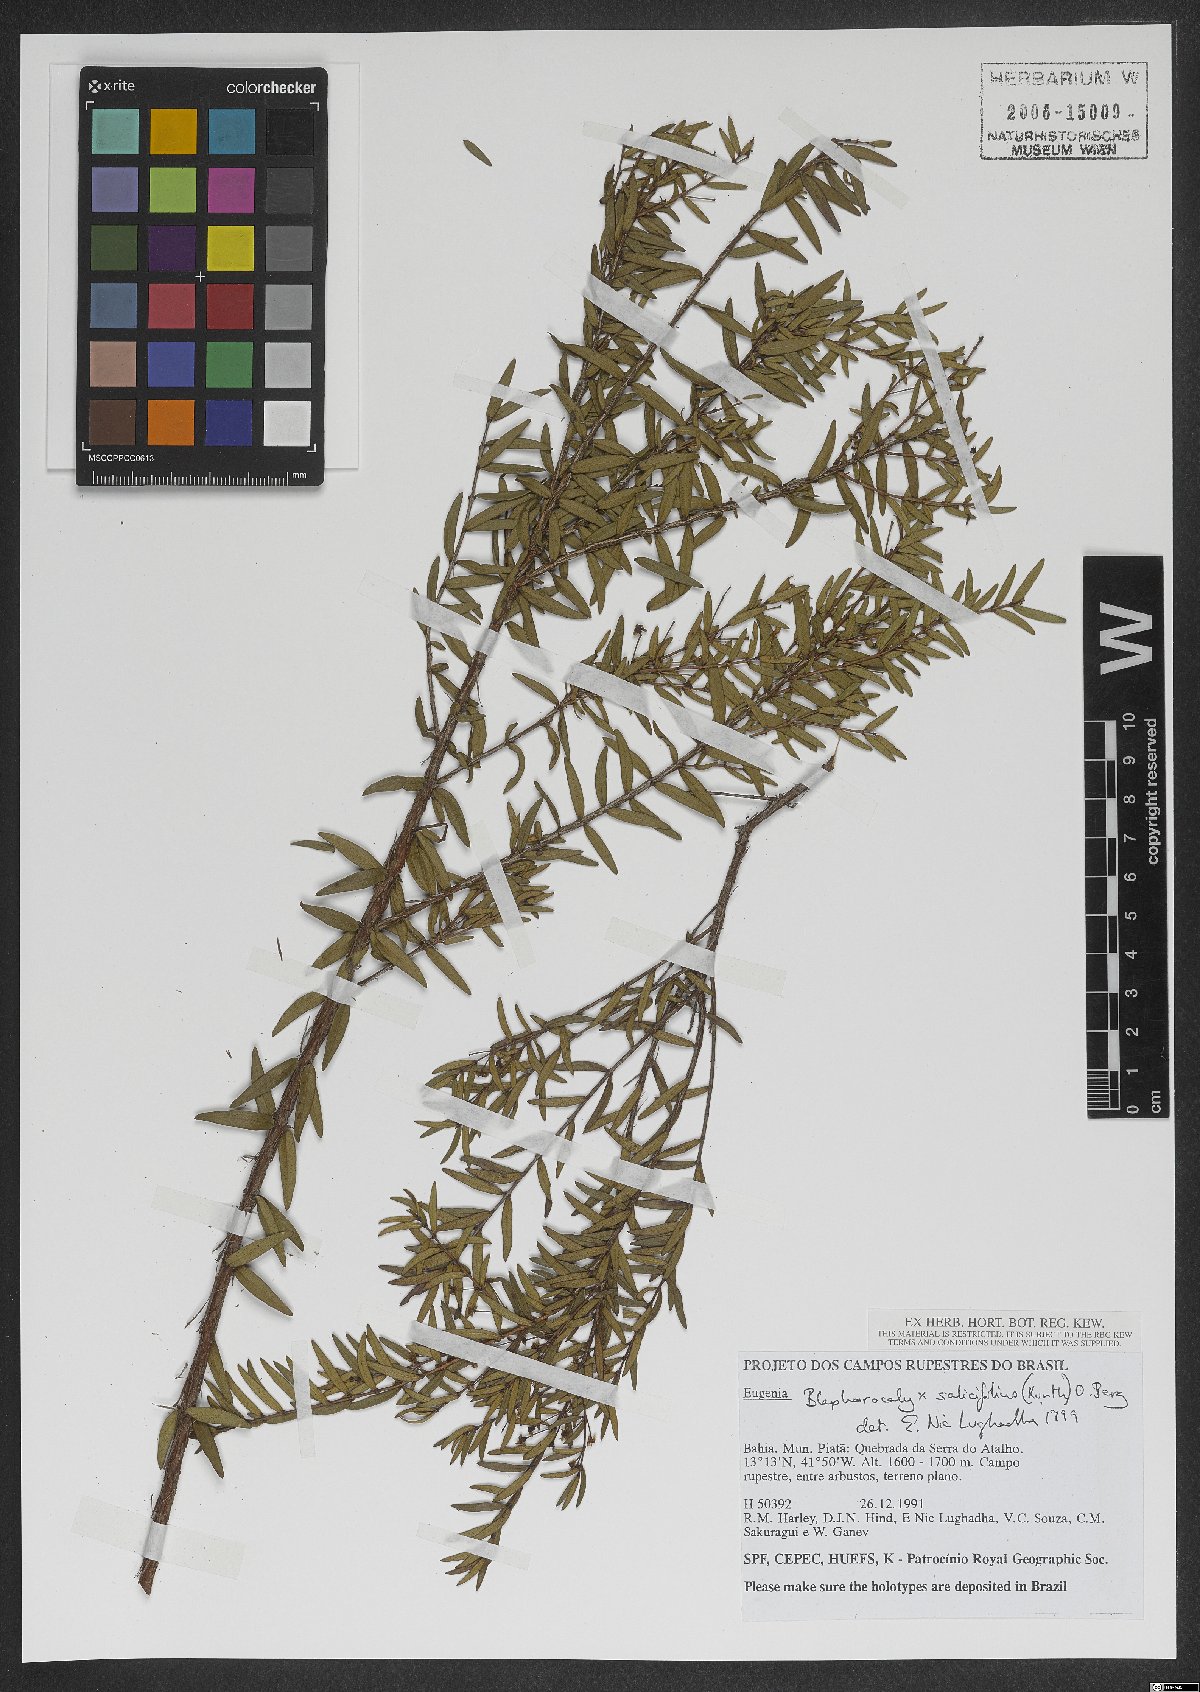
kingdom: Plantae
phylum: Tracheophyta
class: Magnoliopsida
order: Myrtales
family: Myrtaceae
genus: Blepharocalyx
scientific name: Blepharocalyx salicifolius
